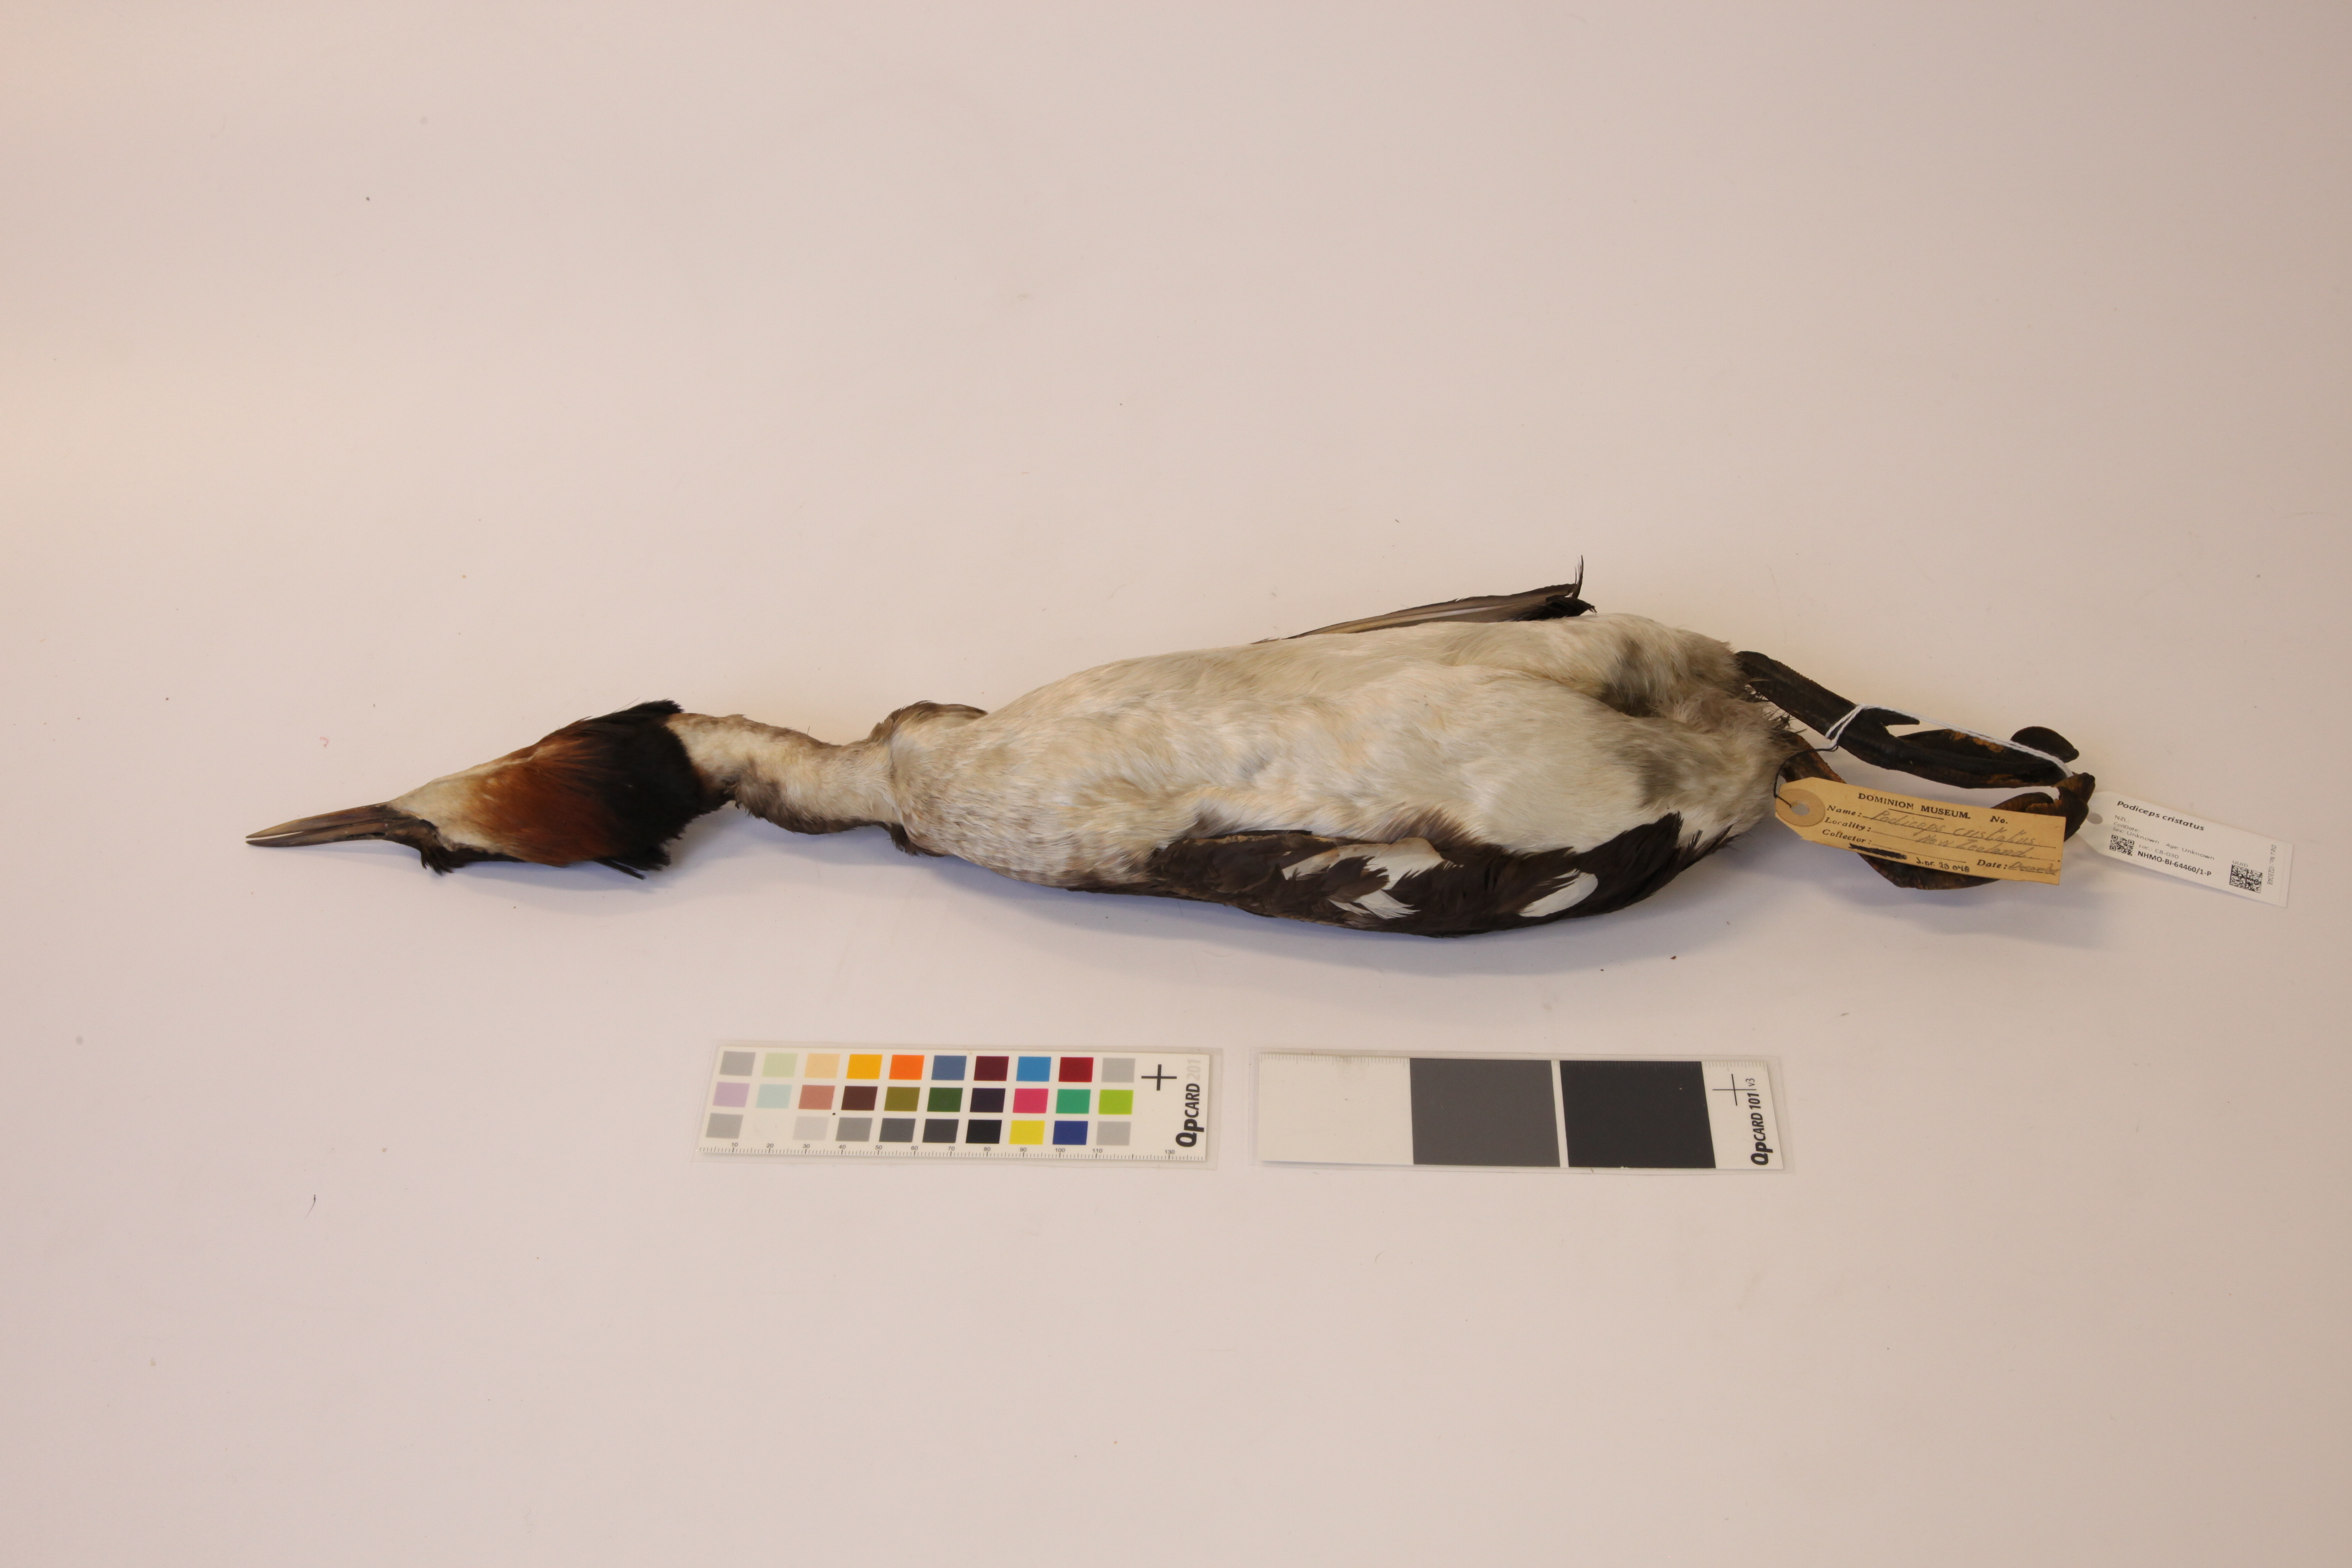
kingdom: Animalia
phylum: Chordata
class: Aves
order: Podicipediformes
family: Podicipedidae
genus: Podiceps
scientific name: Podiceps cristatus
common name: Great crested grebe
